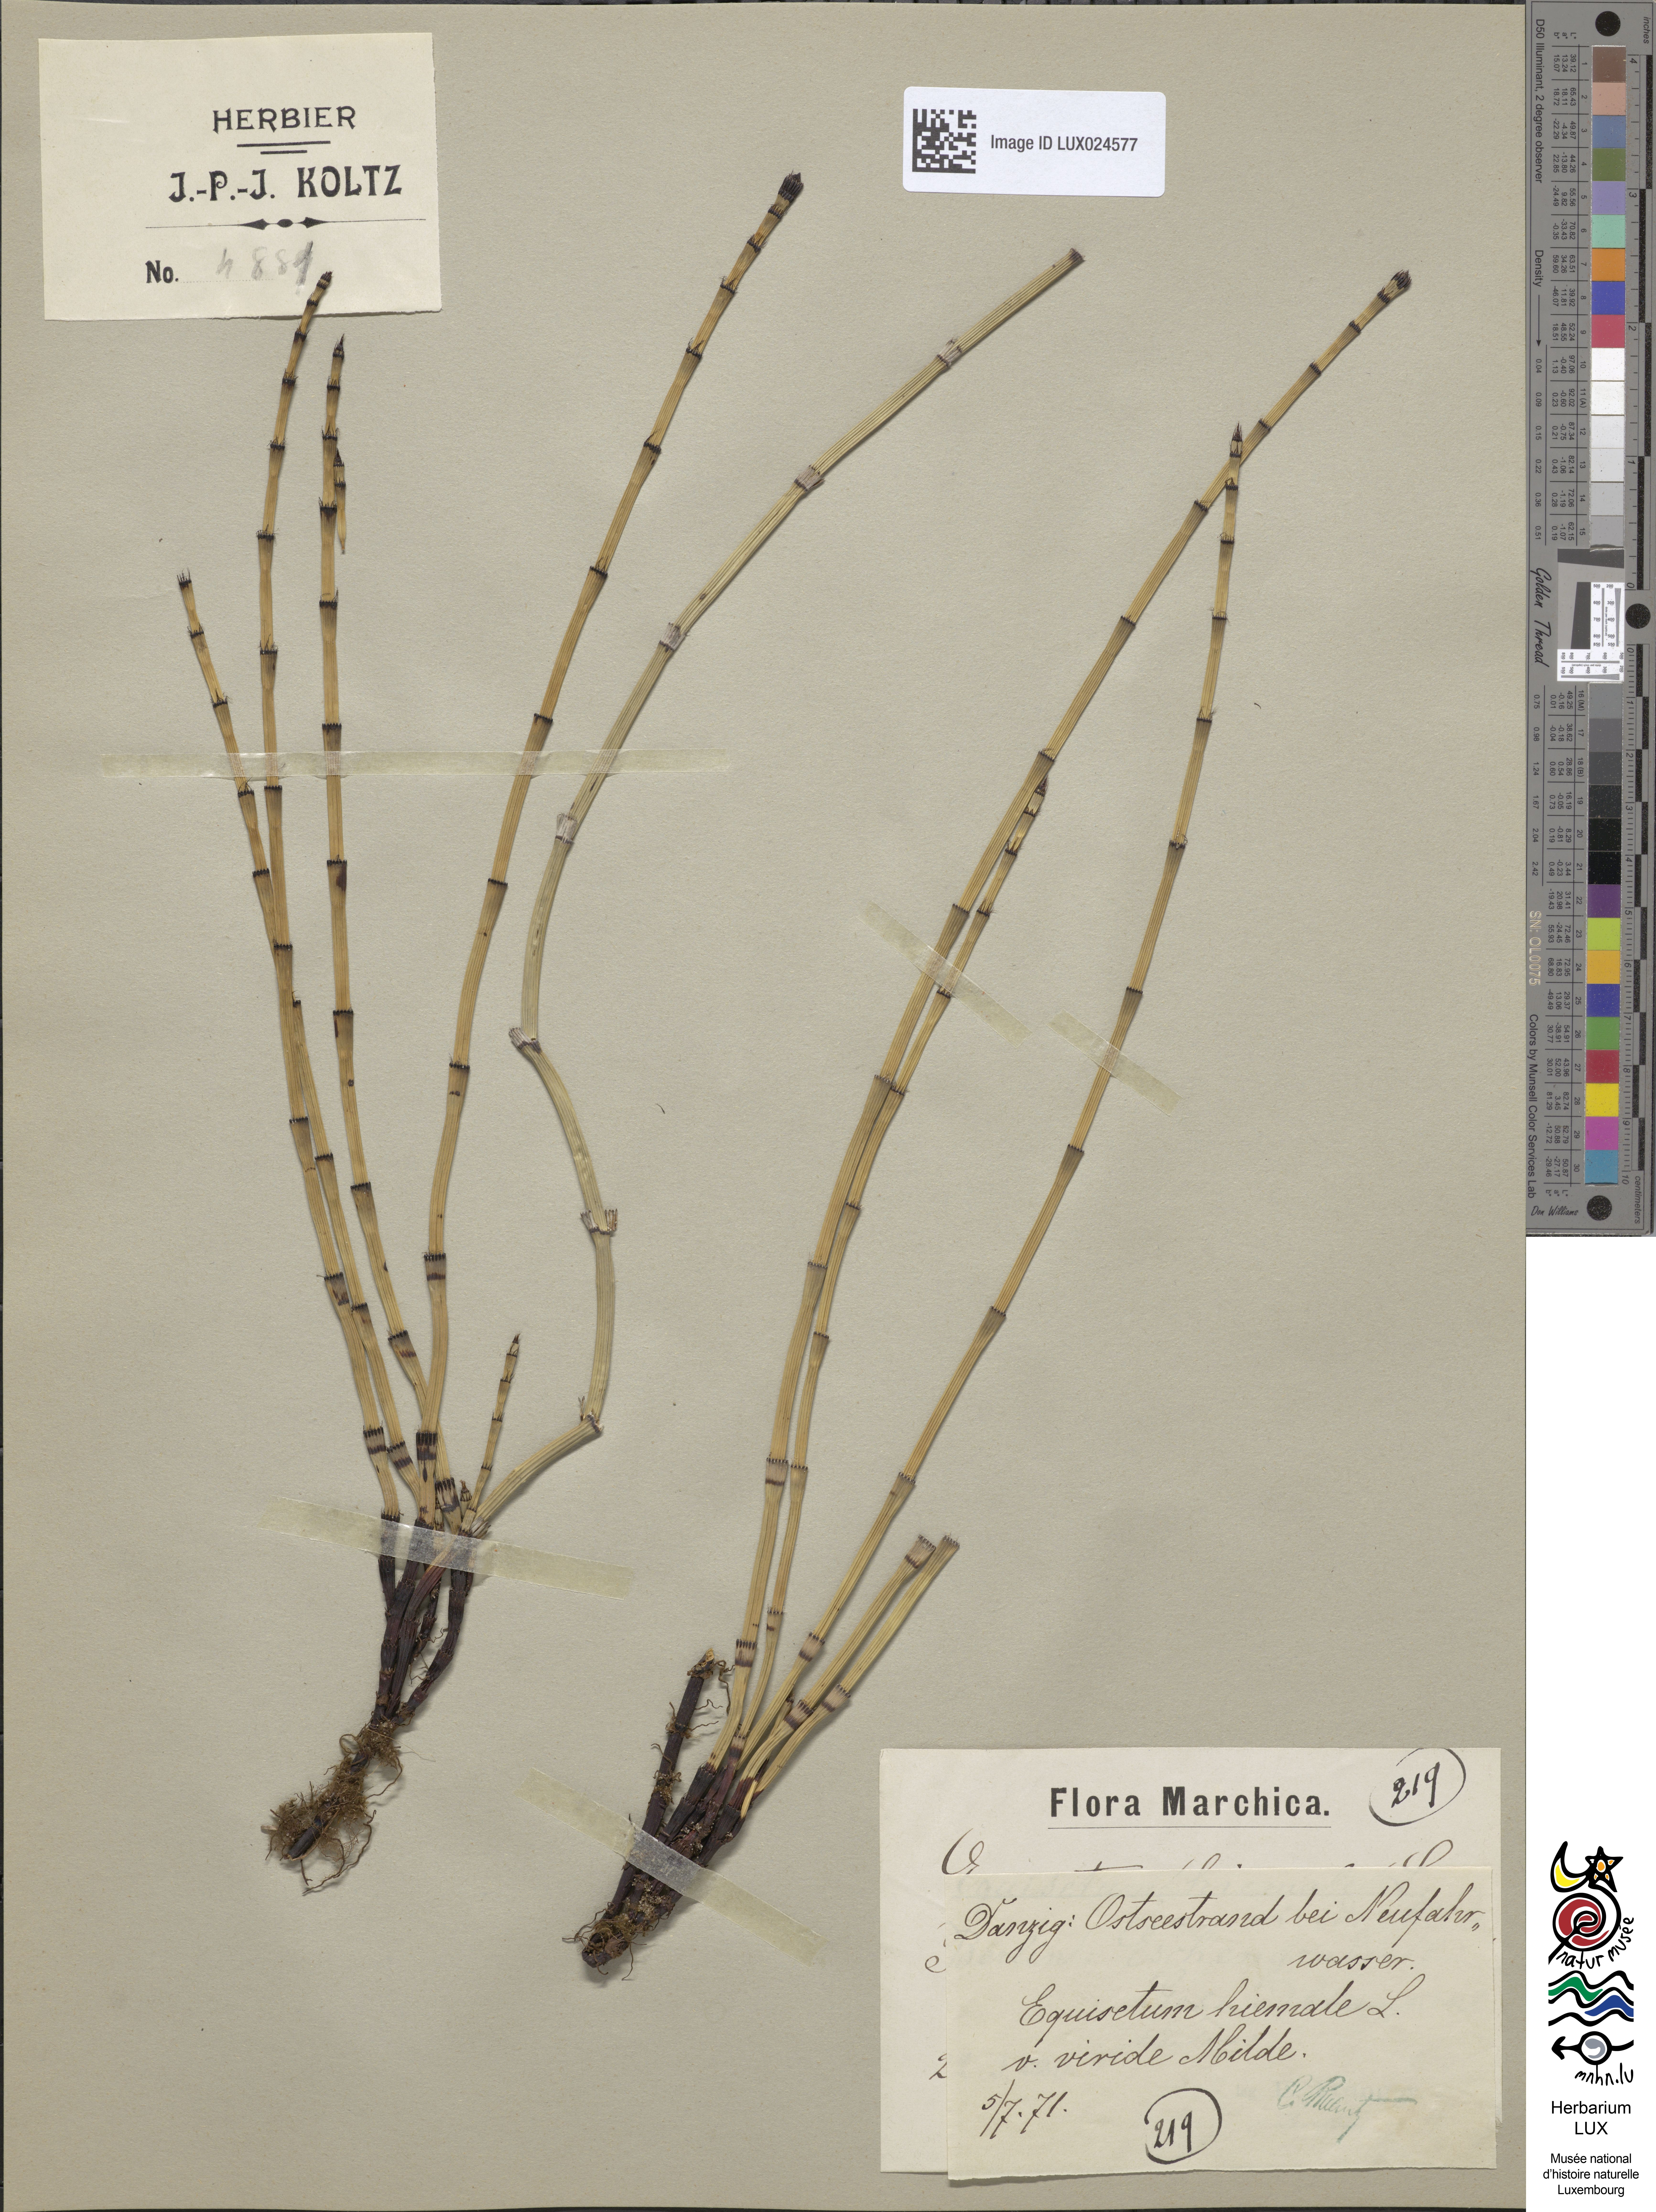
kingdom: Plantae
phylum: Tracheophyta
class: Polypodiopsida
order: Equisetales
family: Equisetaceae
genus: Equisetum
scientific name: Equisetum hyemale
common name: Rough horsetail
